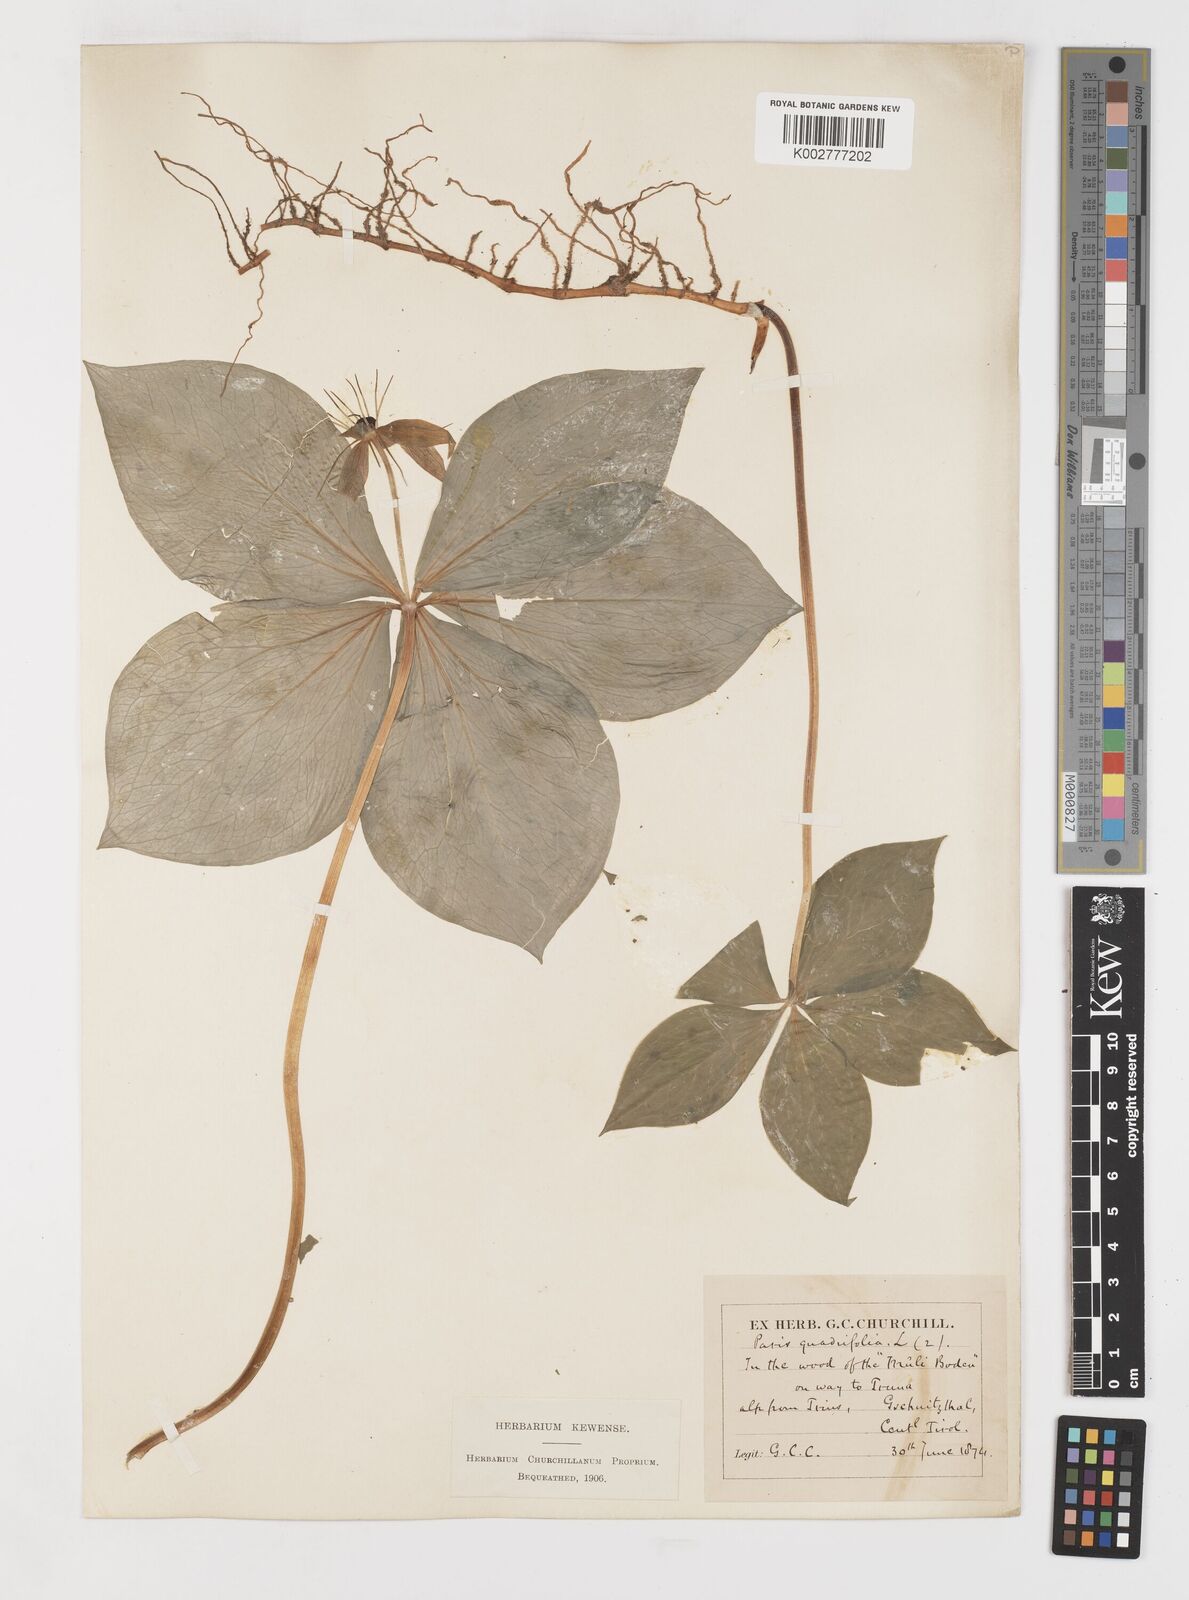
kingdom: Plantae
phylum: Tracheophyta
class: Liliopsida
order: Liliales
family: Melanthiaceae
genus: Paris
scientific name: Paris quadrifolia
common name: Herb-paris
